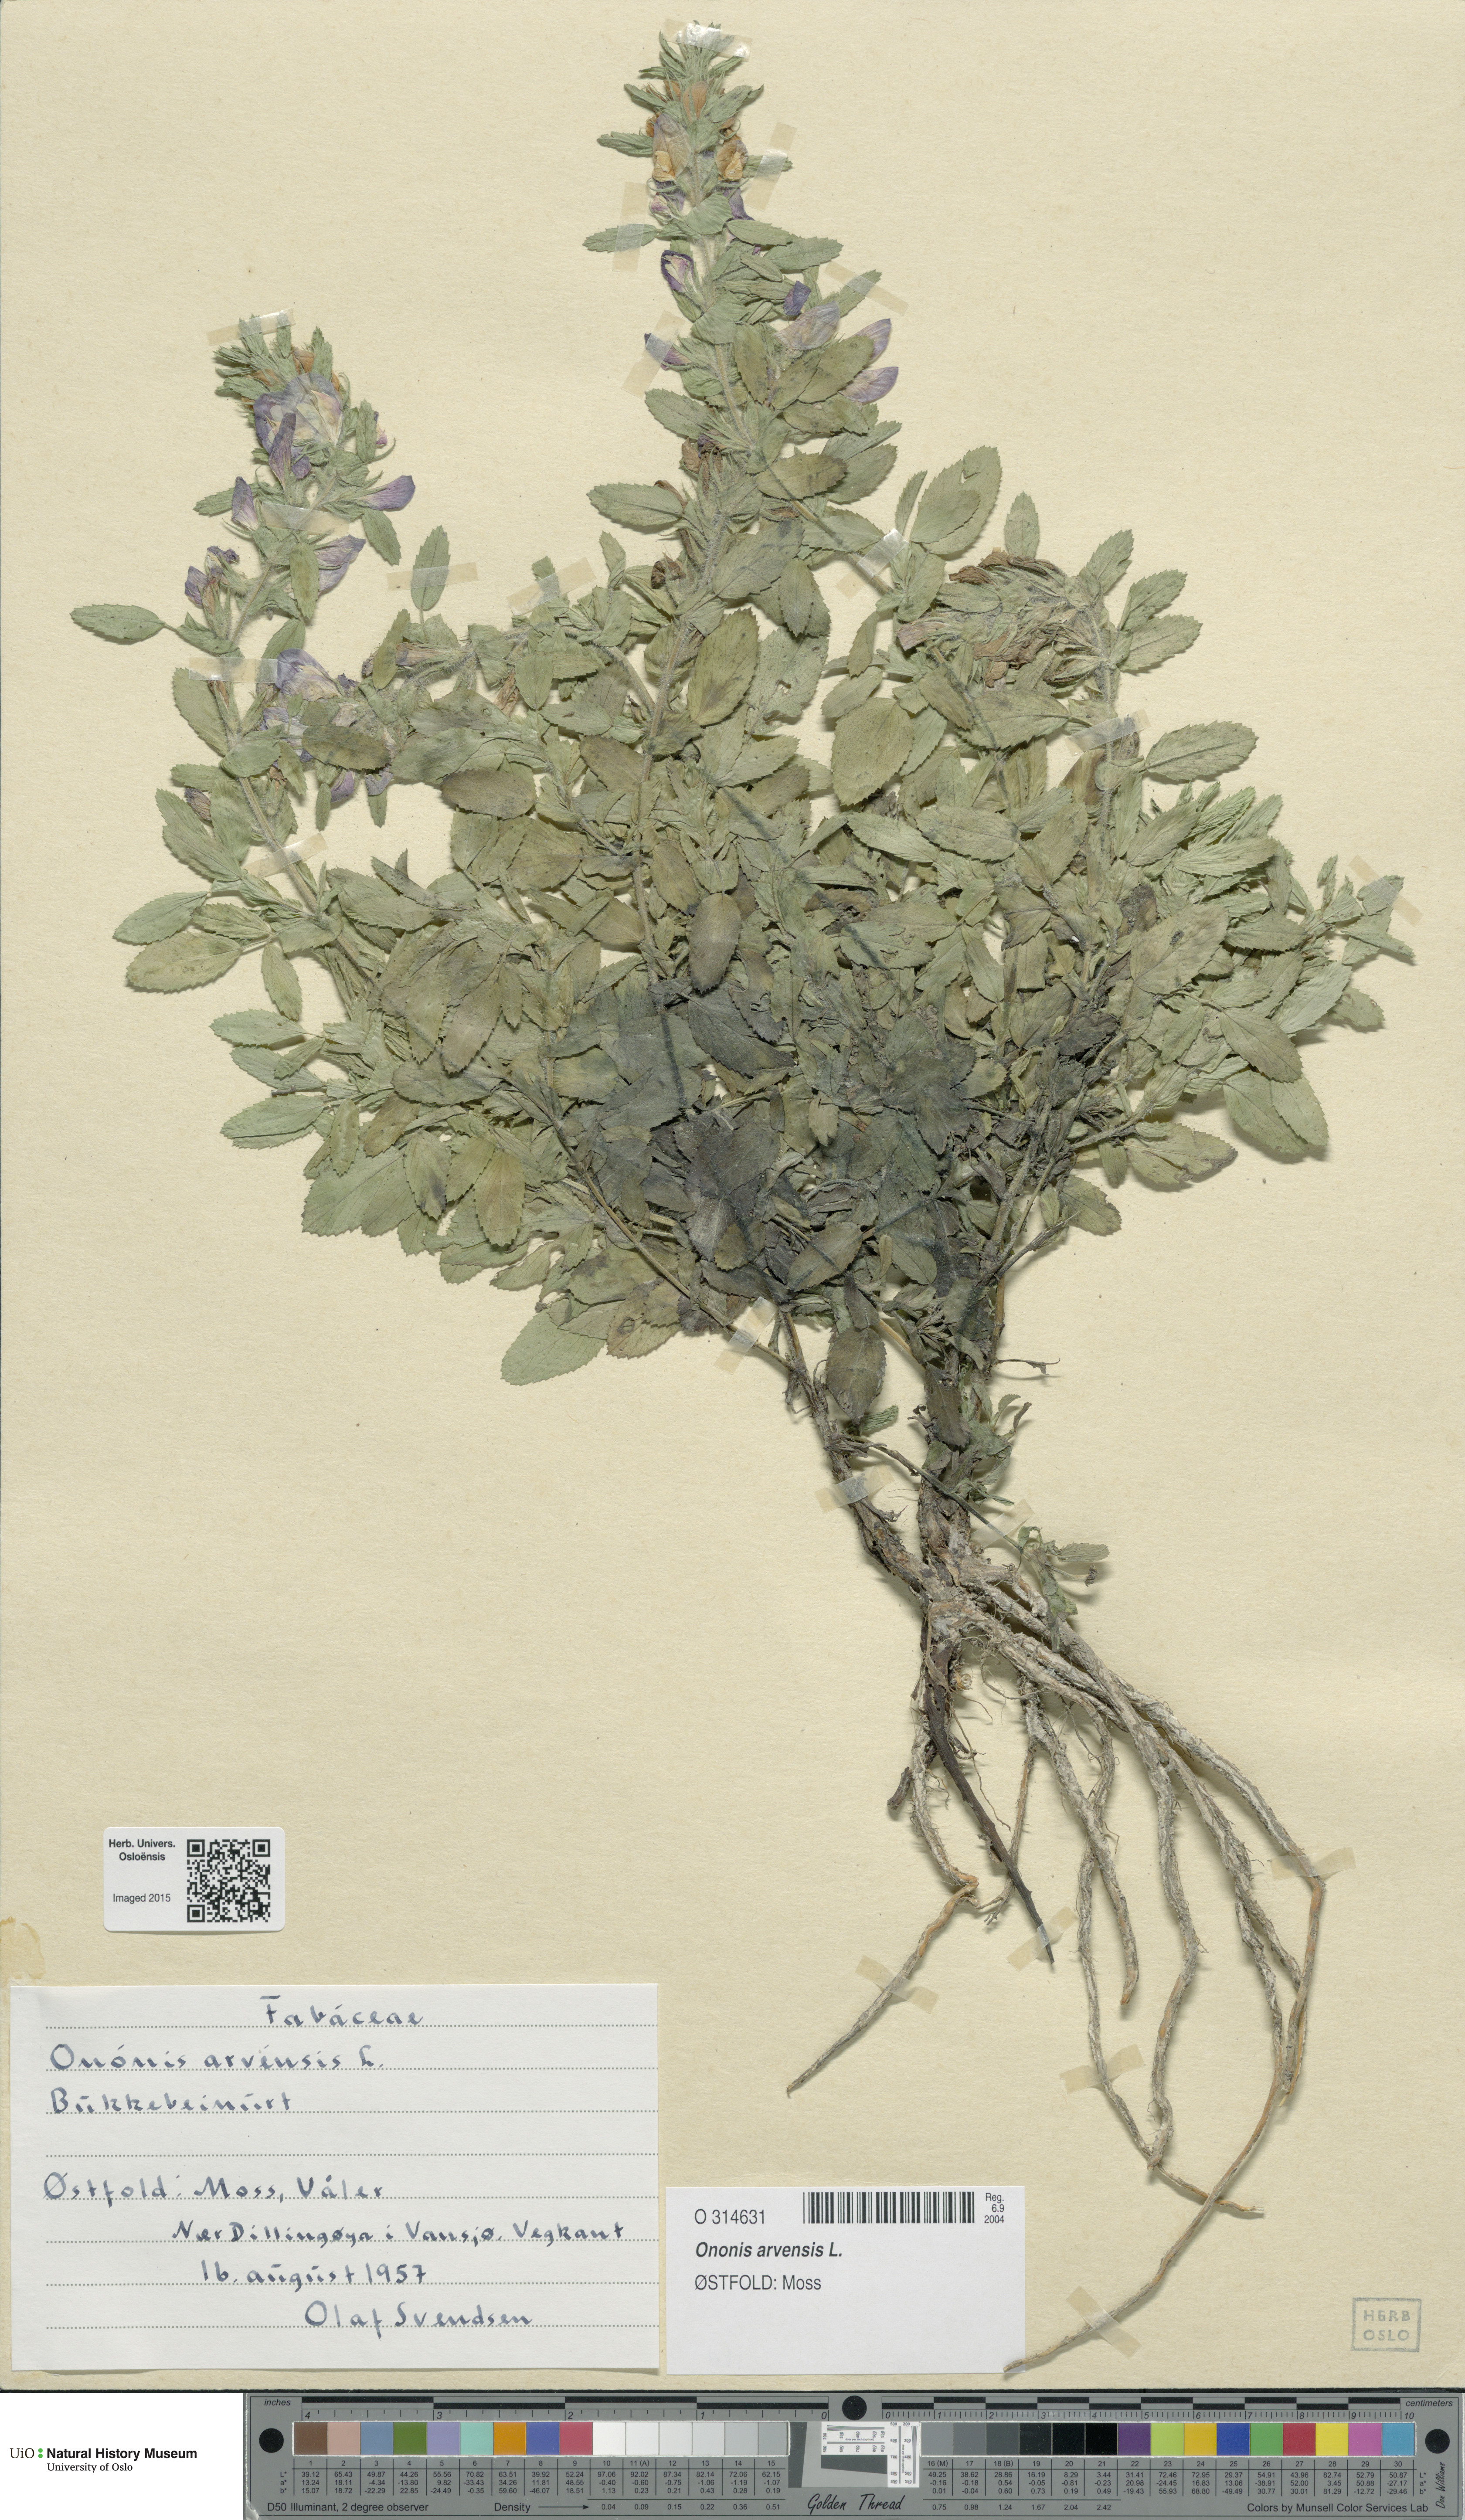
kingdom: Plantae
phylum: Tracheophyta
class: Magnoliopsida
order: Fabales
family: Fabaceae
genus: Ononis
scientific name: Ononis arvensis
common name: Field restharrow
